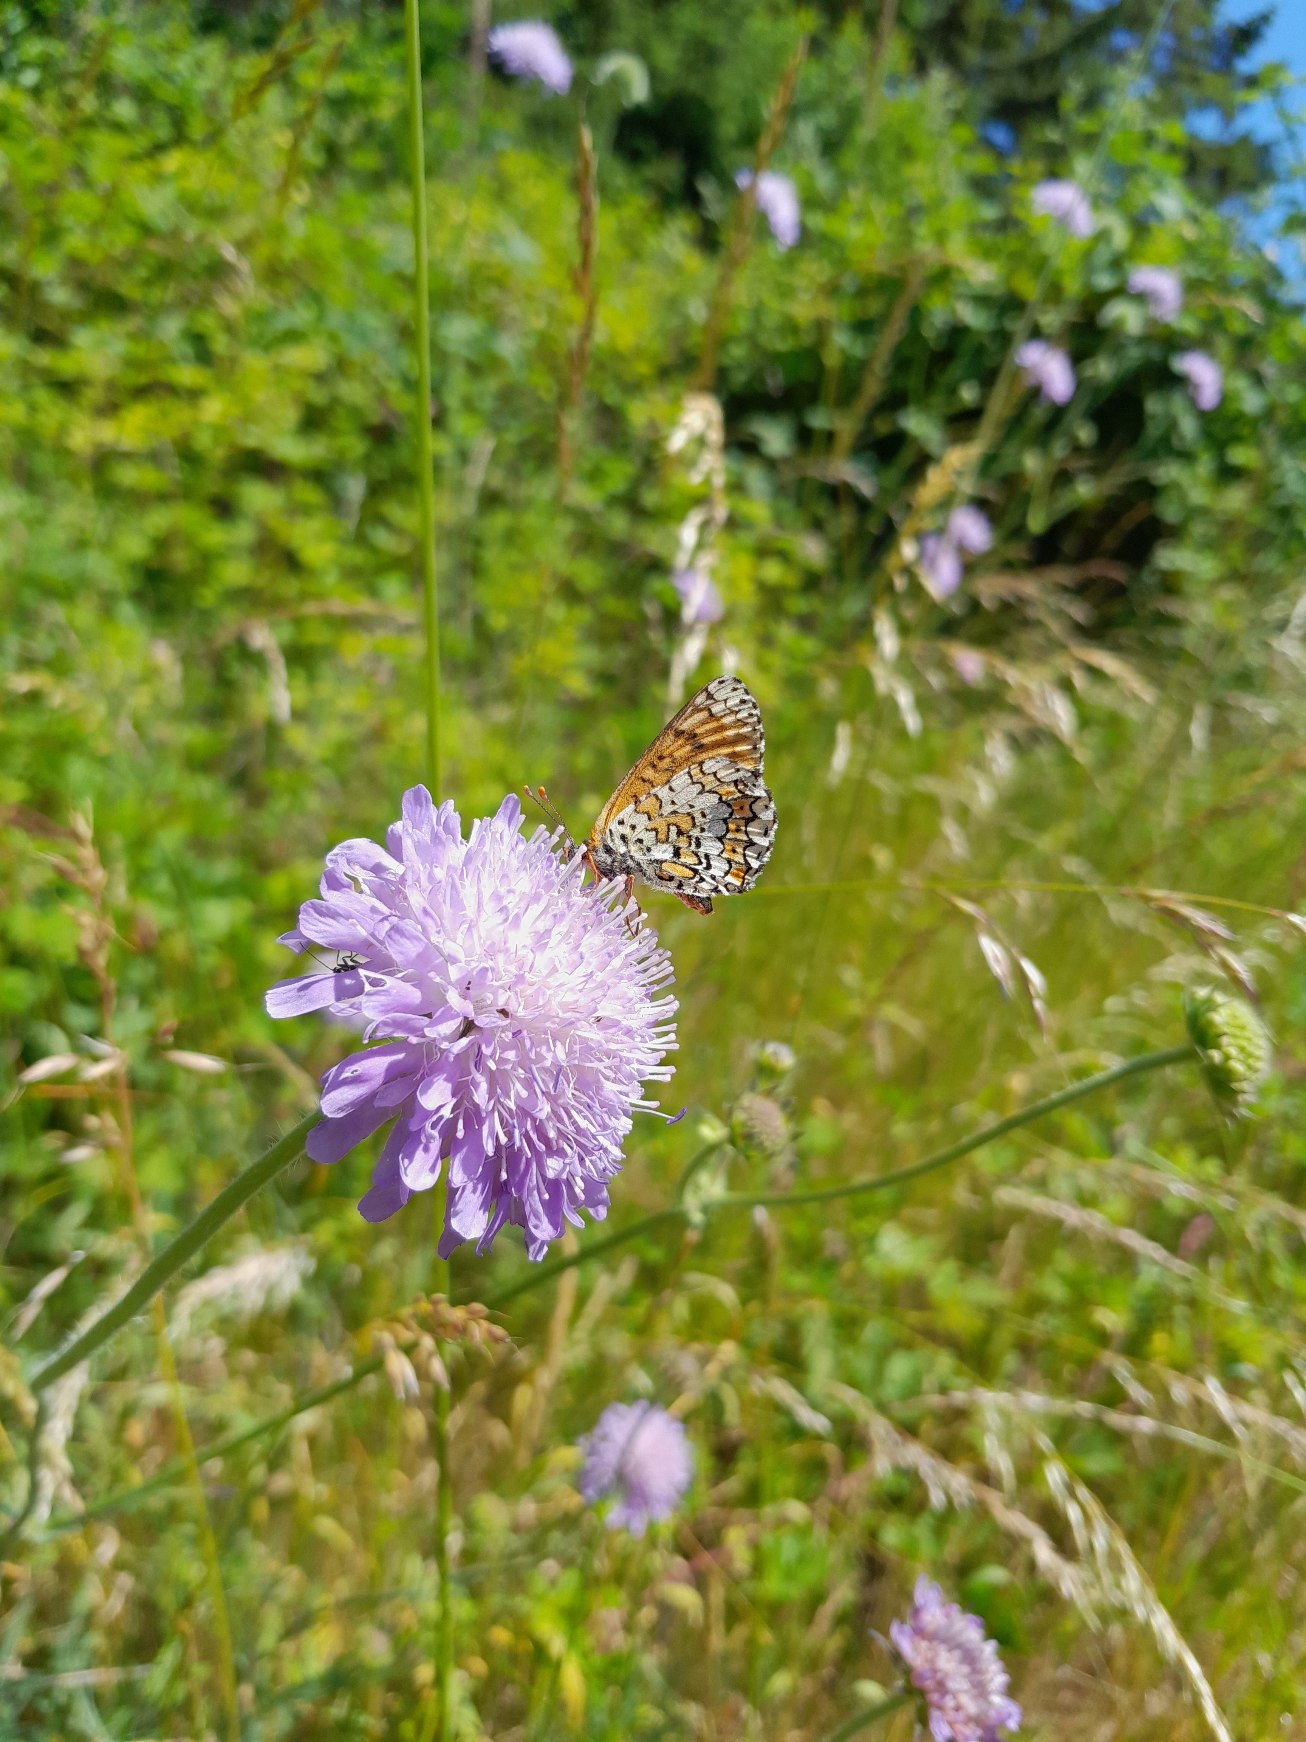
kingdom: Animalia
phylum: Arthropoda
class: Insecta
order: Lepidoptera
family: Nymphalidae
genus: Melitaea
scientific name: Melitaea cinxia
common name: Okkergul pletvinge
